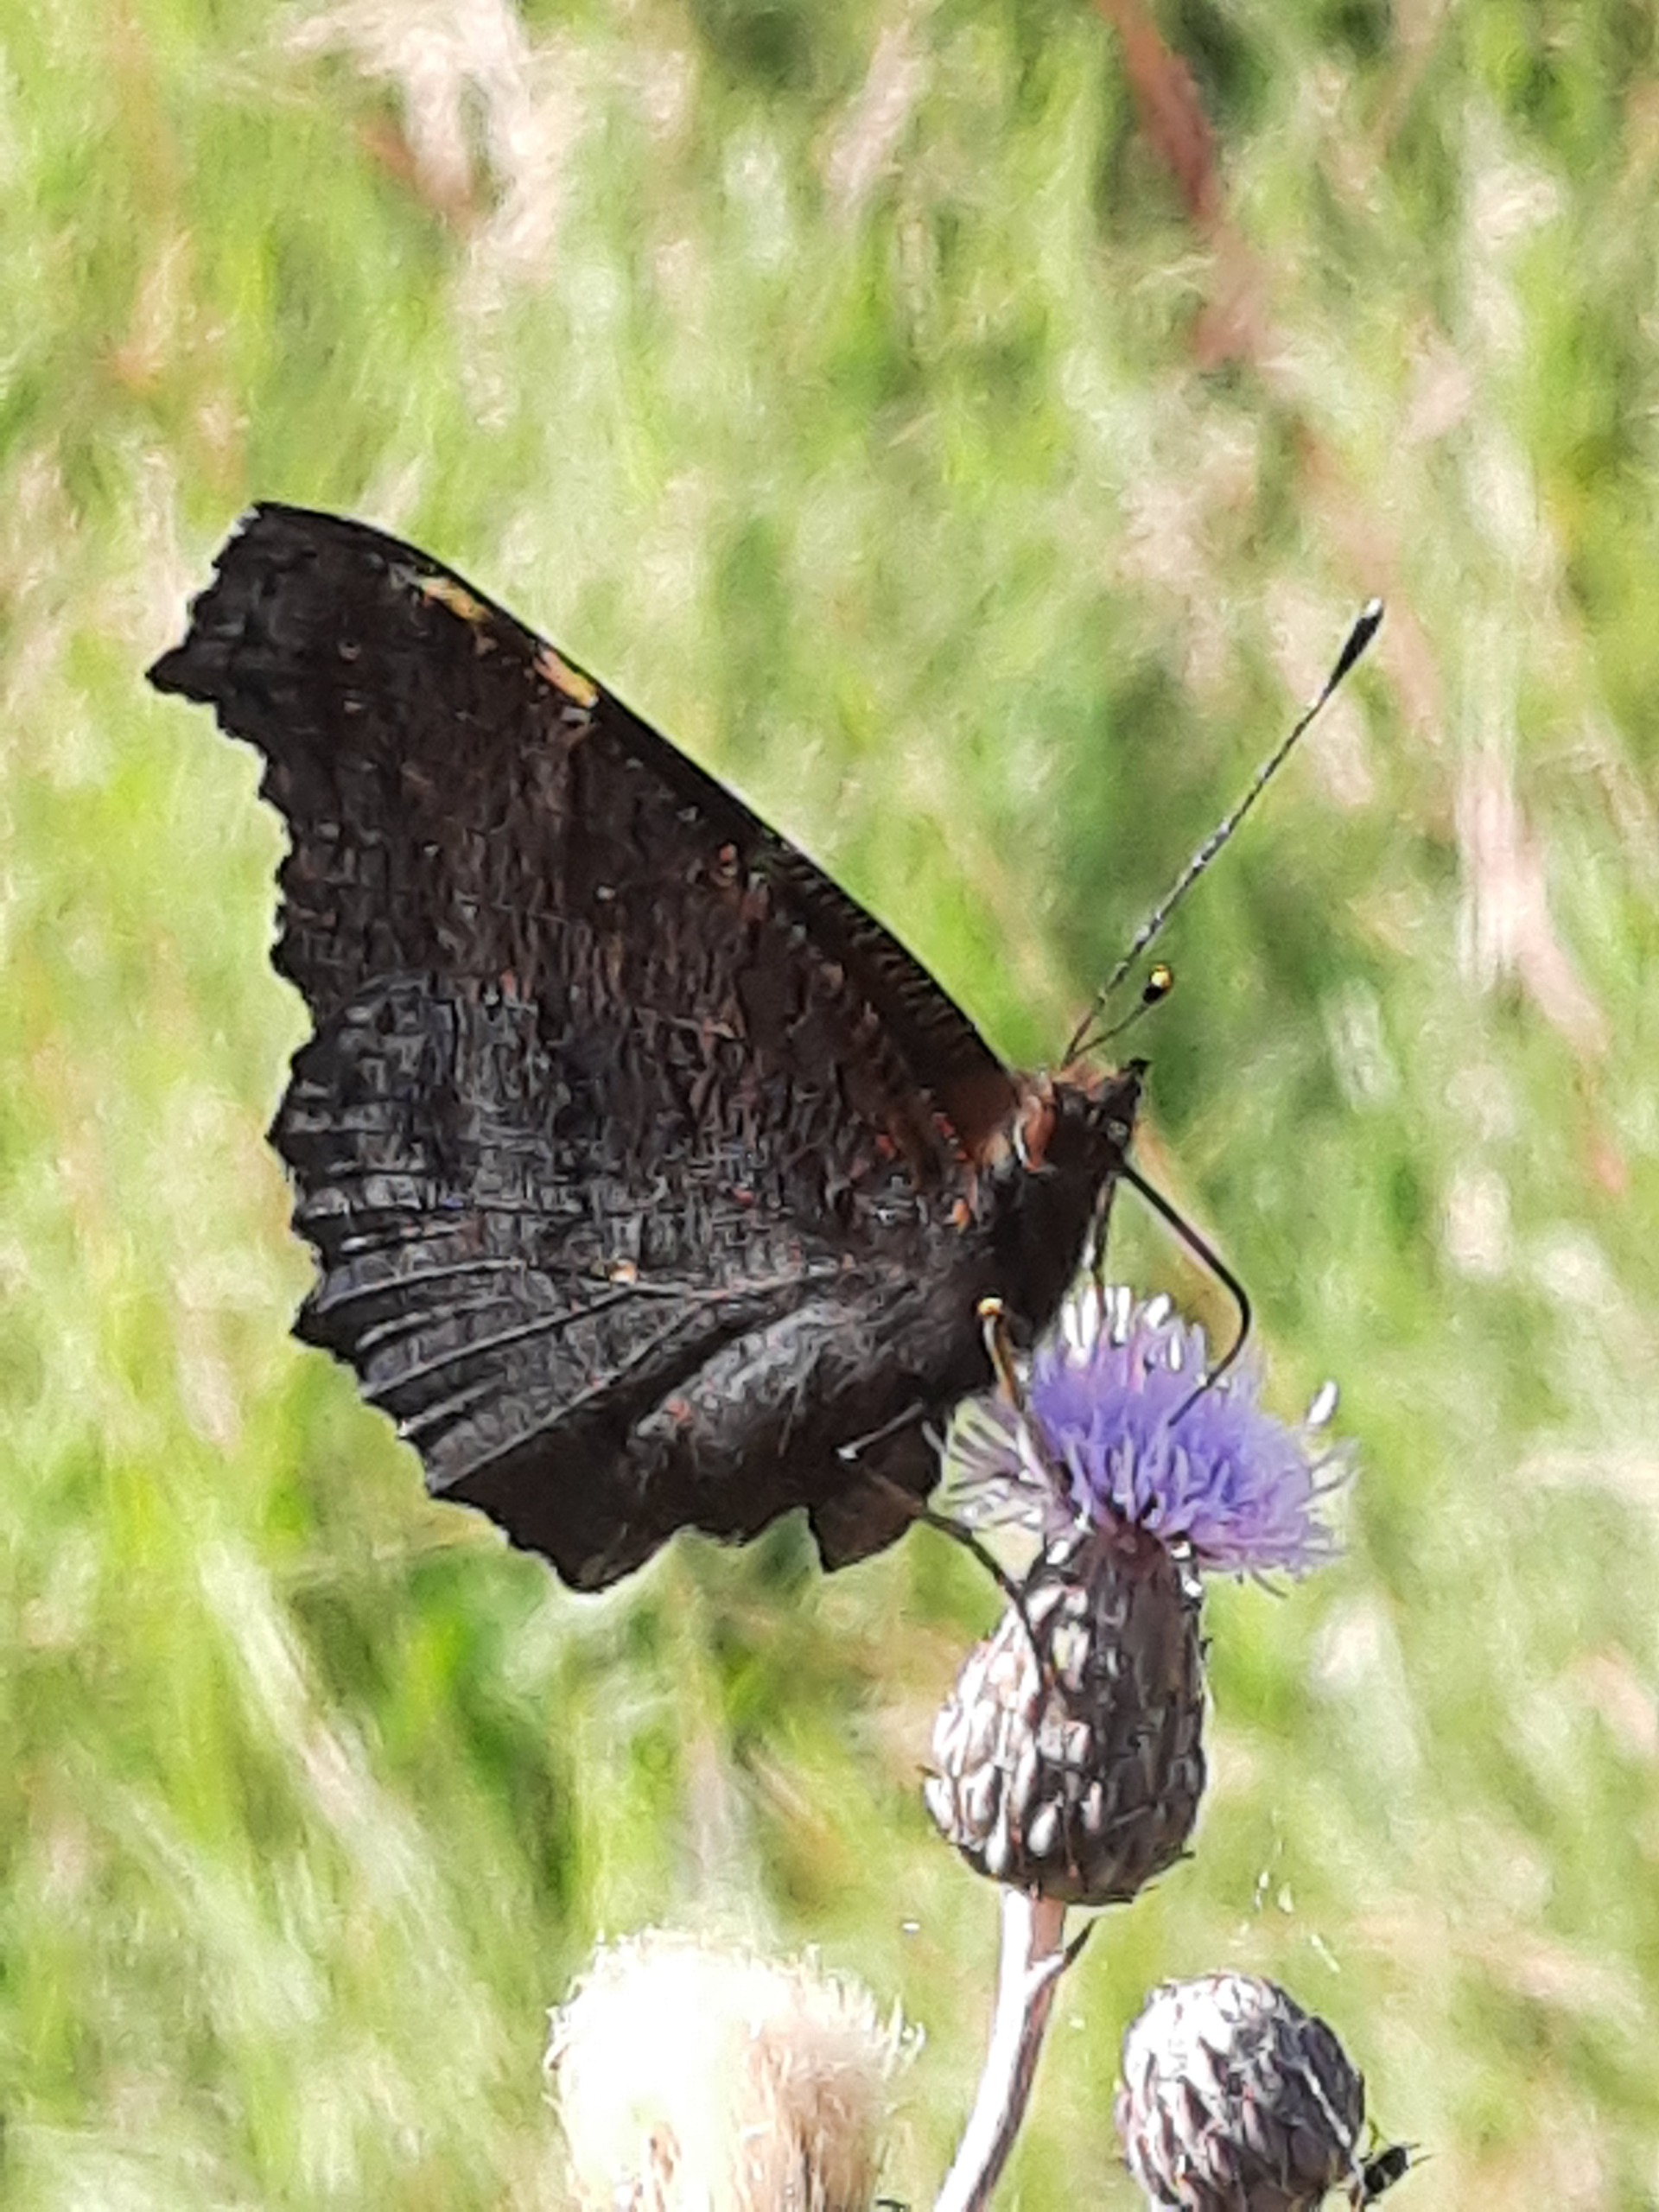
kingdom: Animalia
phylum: Arthropoda
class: Insecta
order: Lepidoptera
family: Nymphalidae
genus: Aglais
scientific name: Aglais io
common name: Dagpåfugleøje
